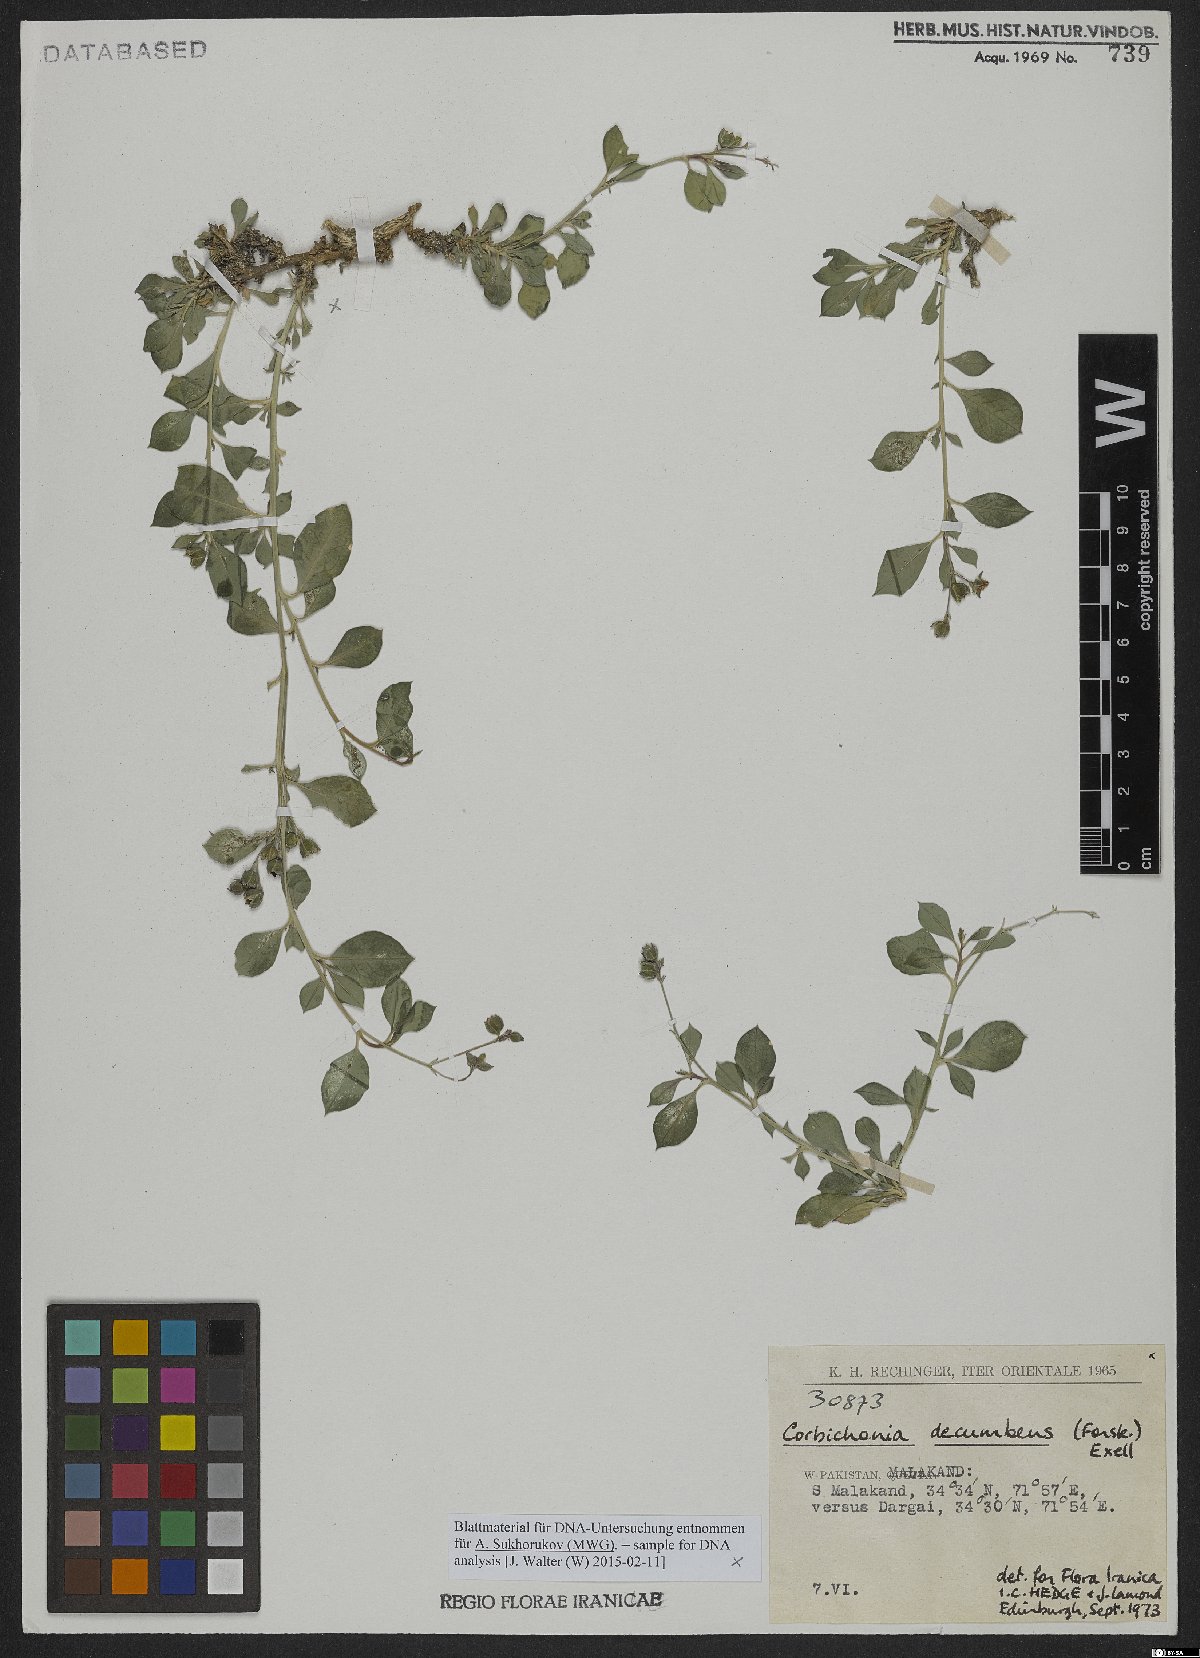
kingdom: Plantae
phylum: Tracheophyta
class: Magnoliopsida
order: Caryophyllales
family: Corbichoniaceae
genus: Corbichonia
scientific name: Corbichonia decumbens
